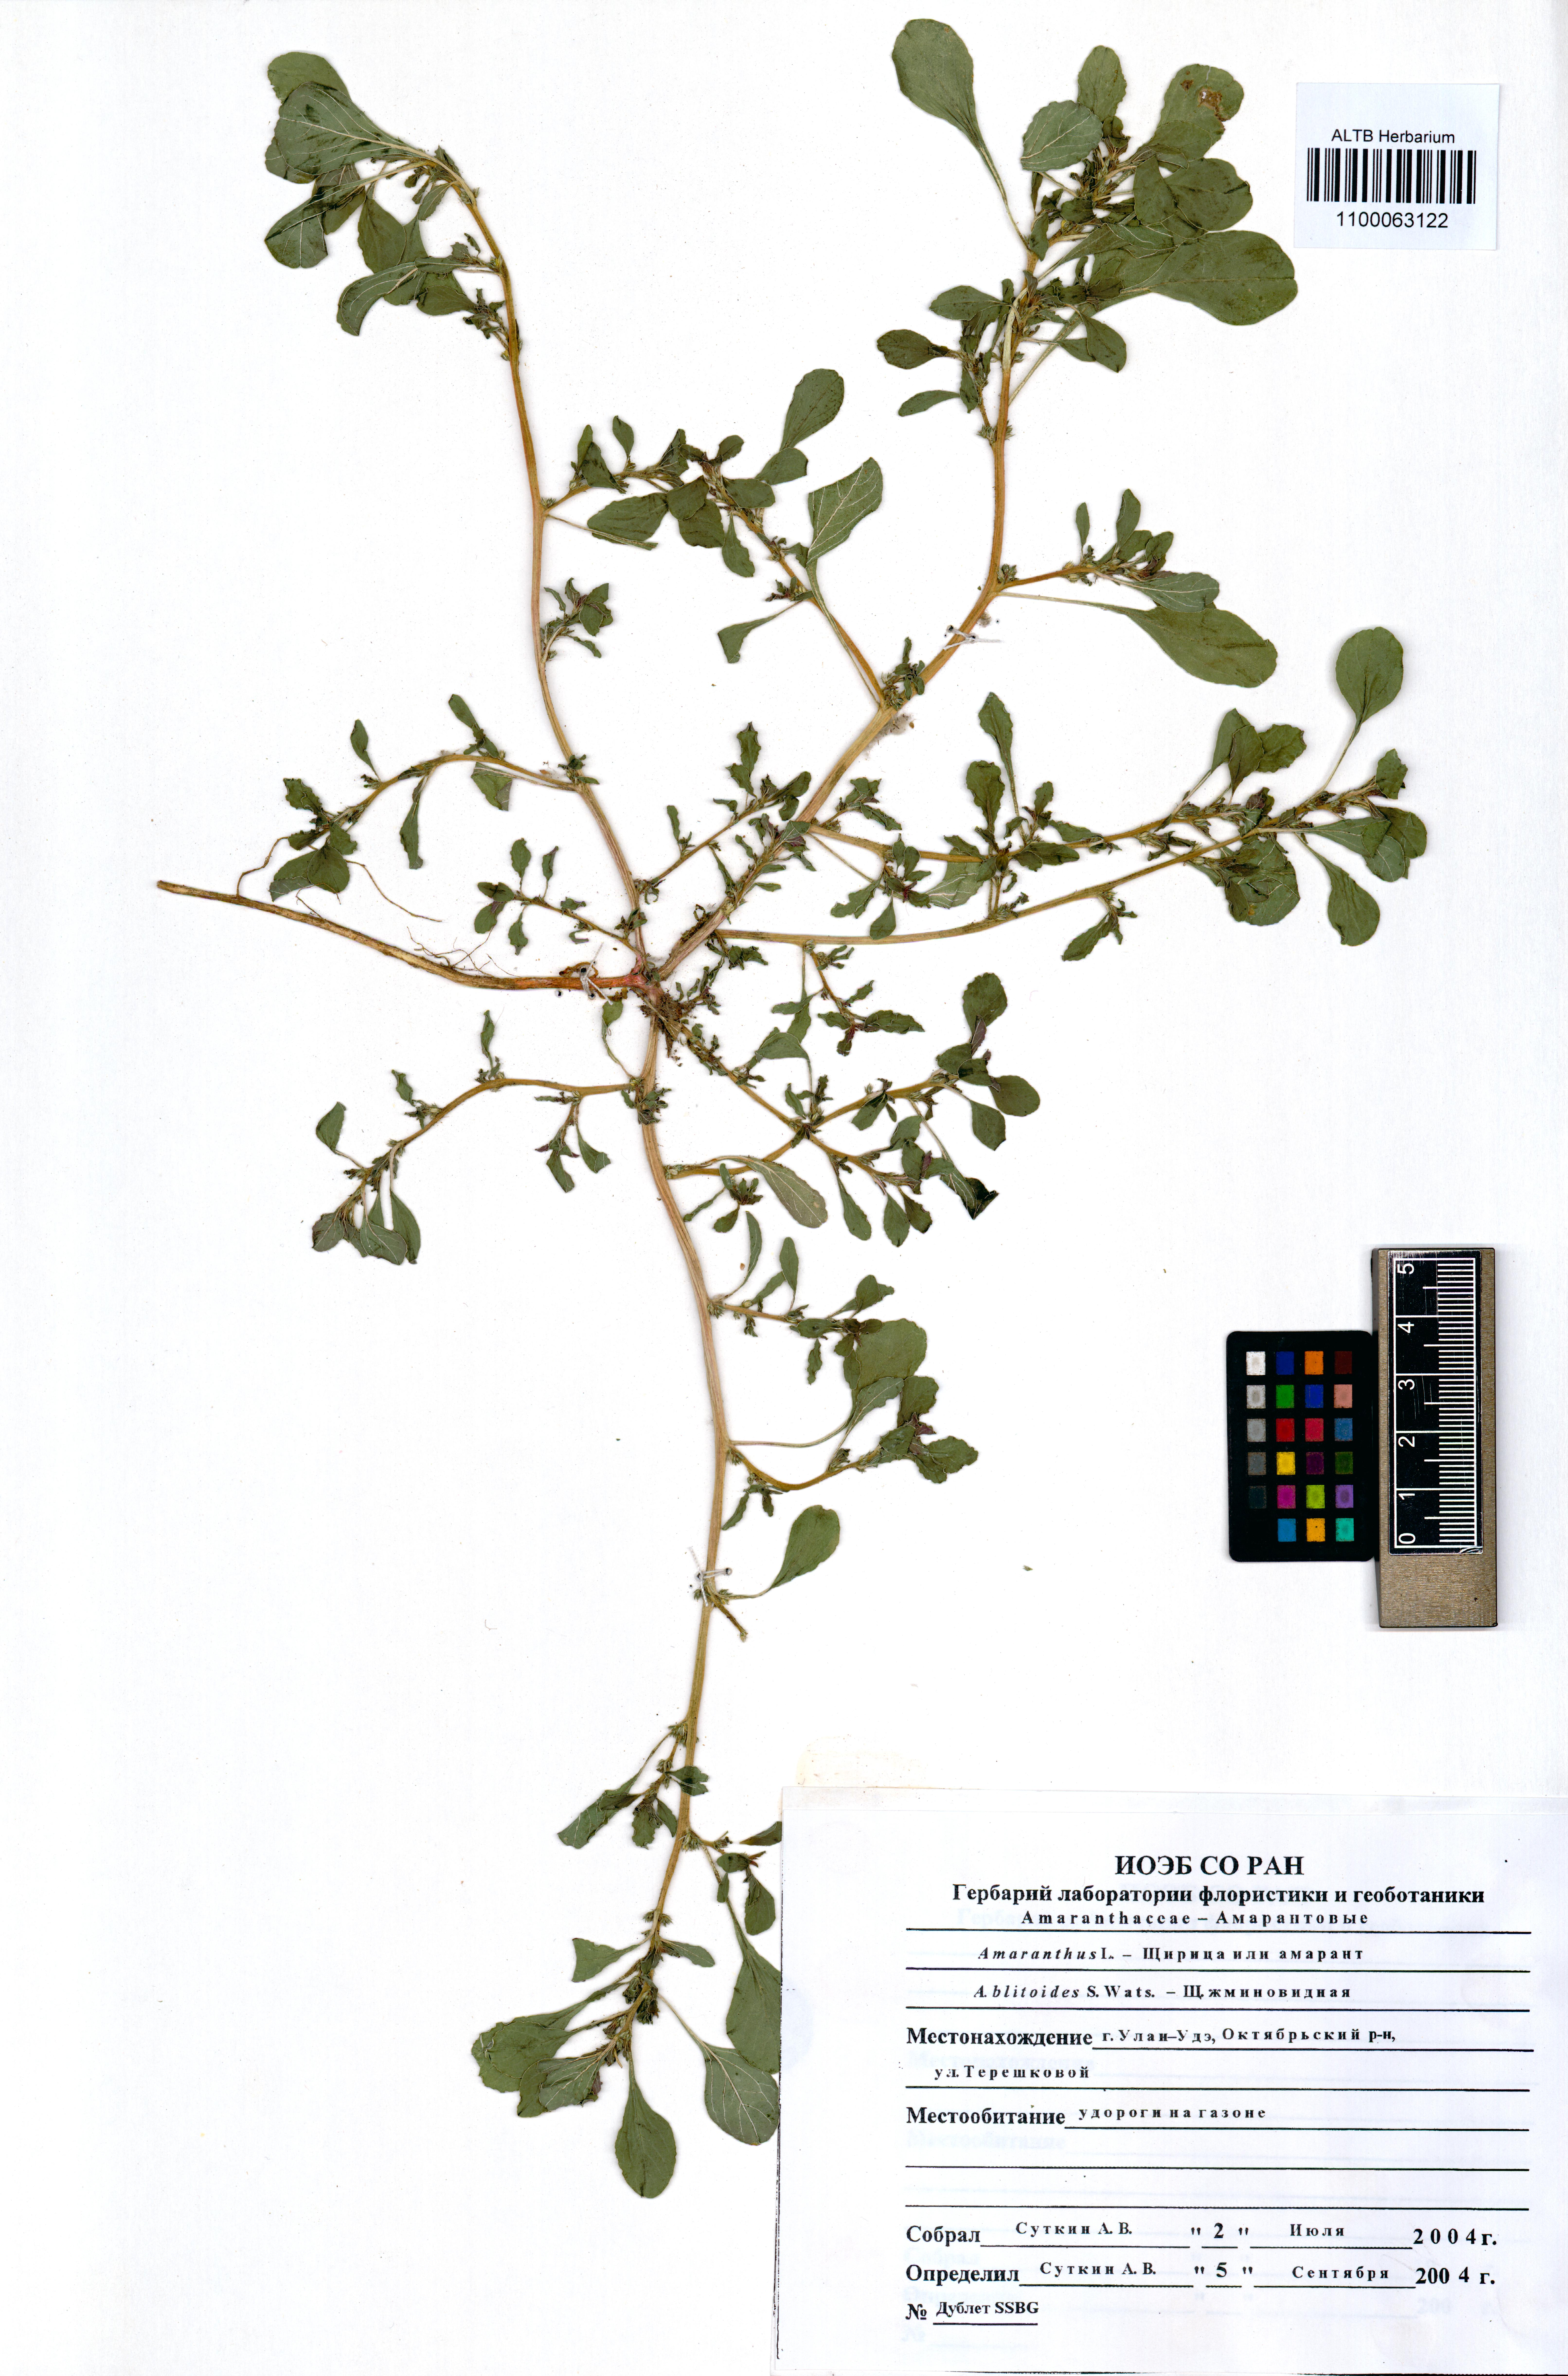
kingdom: Plantae
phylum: Tracheophyta
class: Magnoliopsida
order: Caryophyllales
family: Amaranthaceae
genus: Amaranthus
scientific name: Amaranthus blitoides
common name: Prostrate pigweed
